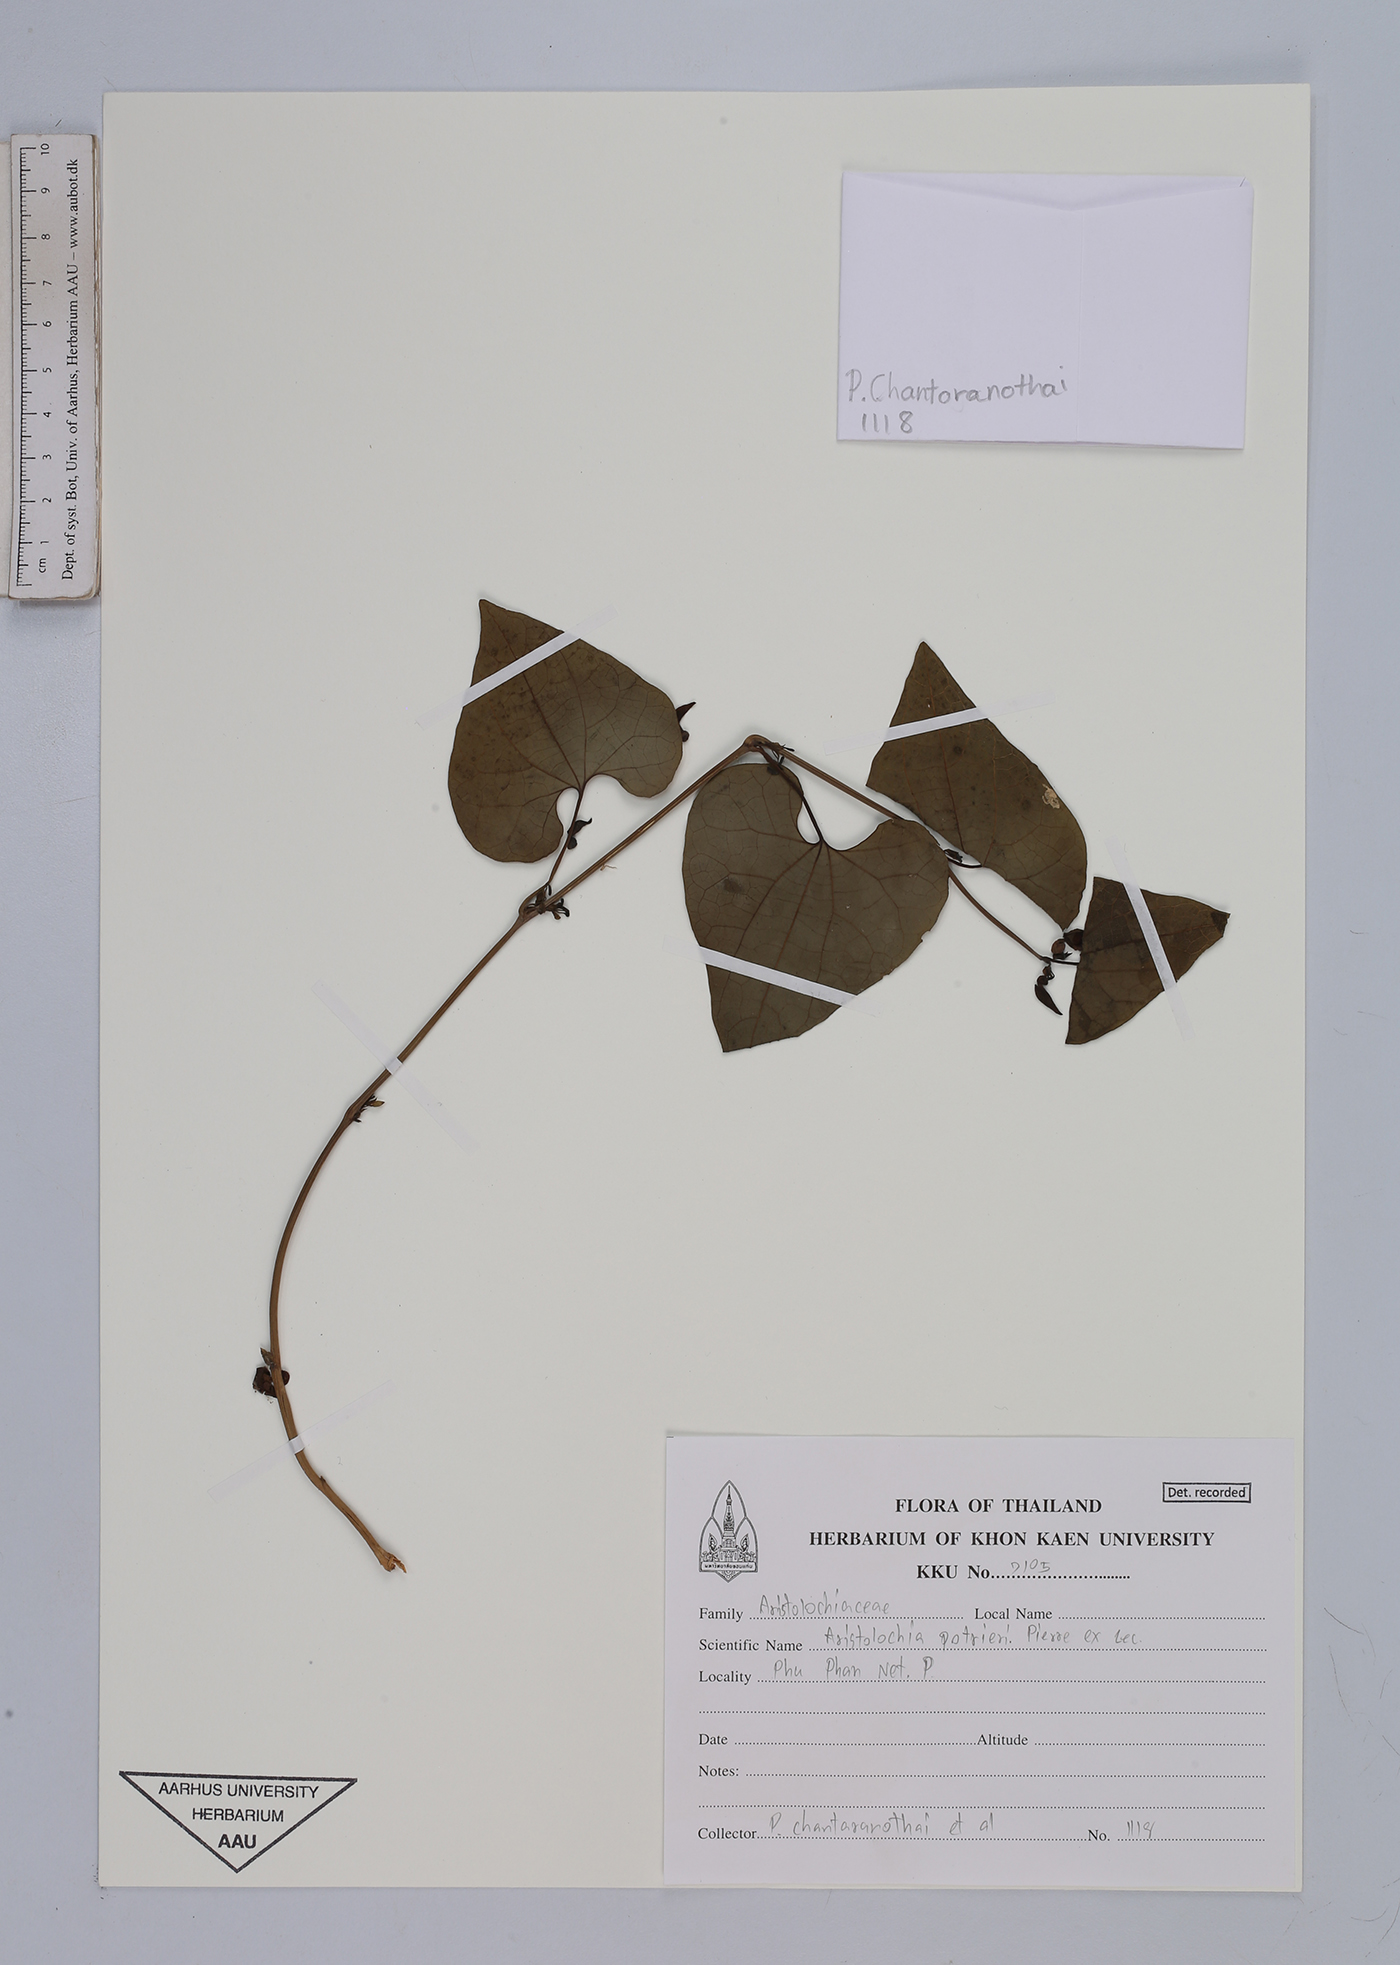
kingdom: Plantae
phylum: Tracheophyta
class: Magnoliopsida
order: Piperales
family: Aristolochiaceae
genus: Aristolochia
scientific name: Aristolochia pothieri
